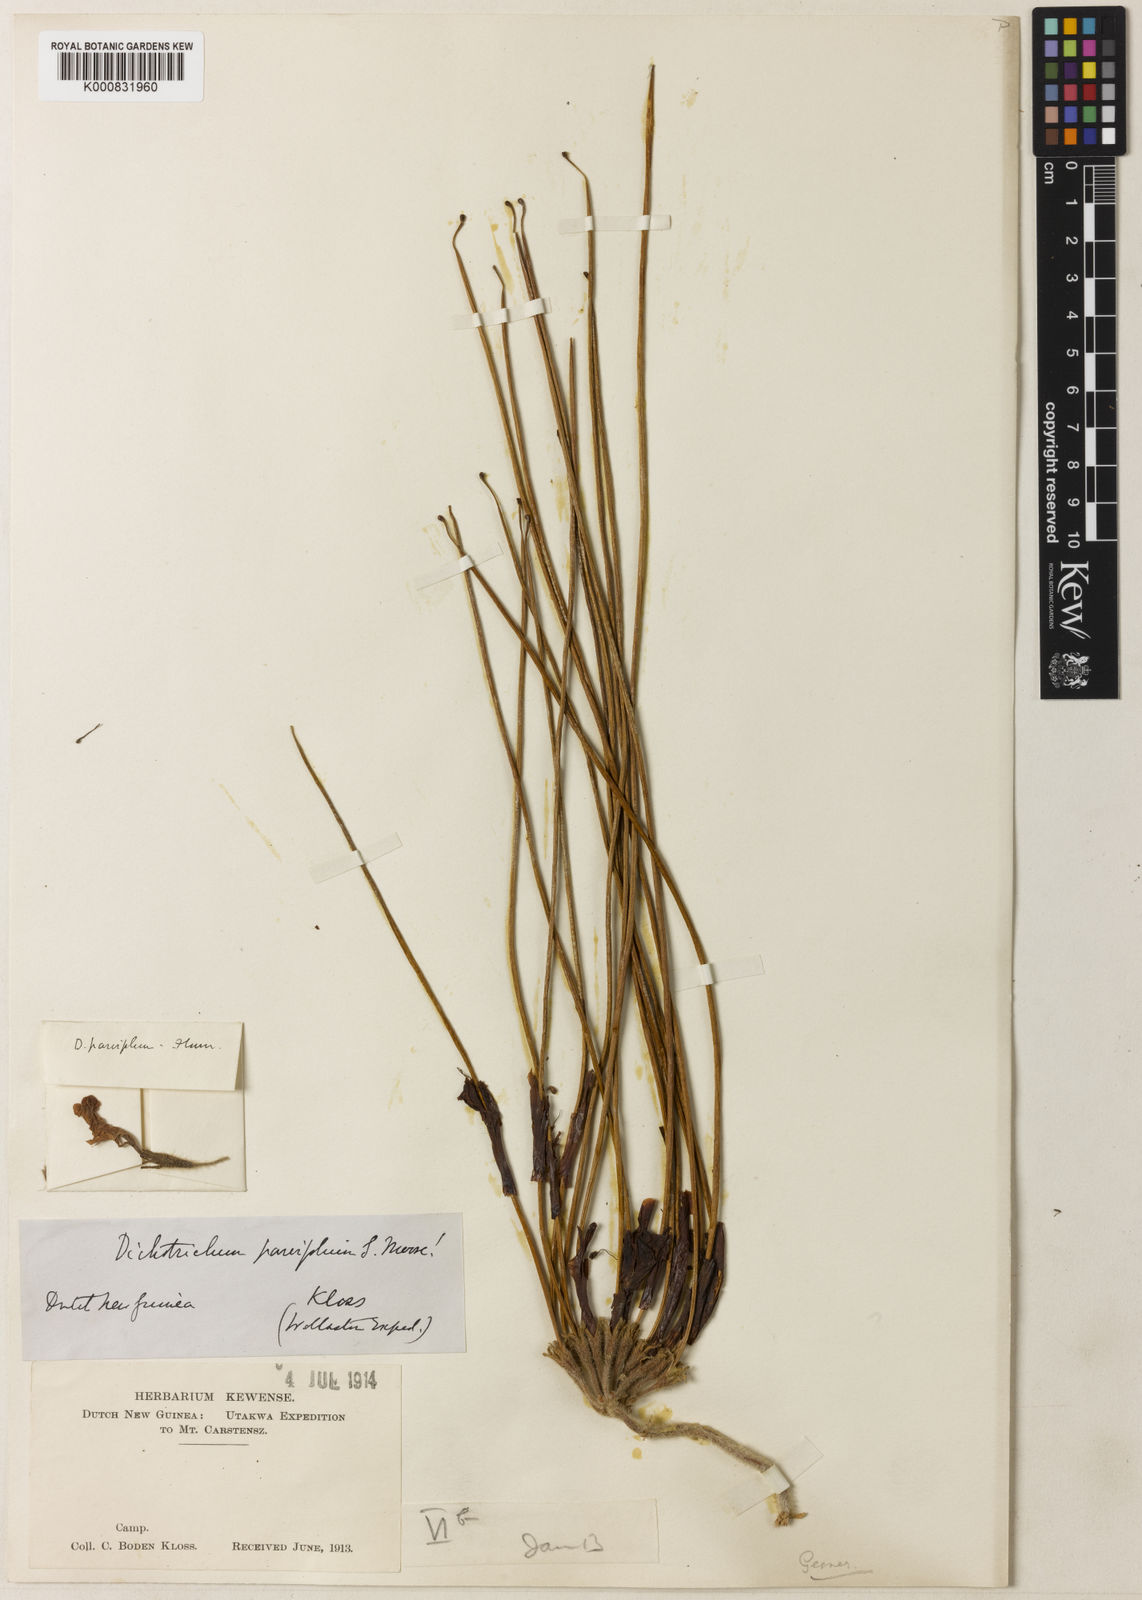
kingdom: Plantae
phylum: Tracheophyta
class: Magnoliopsida
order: Lamiales
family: Gesneriaceae
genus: Agalmyla
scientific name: Agalmyla parvifolia
